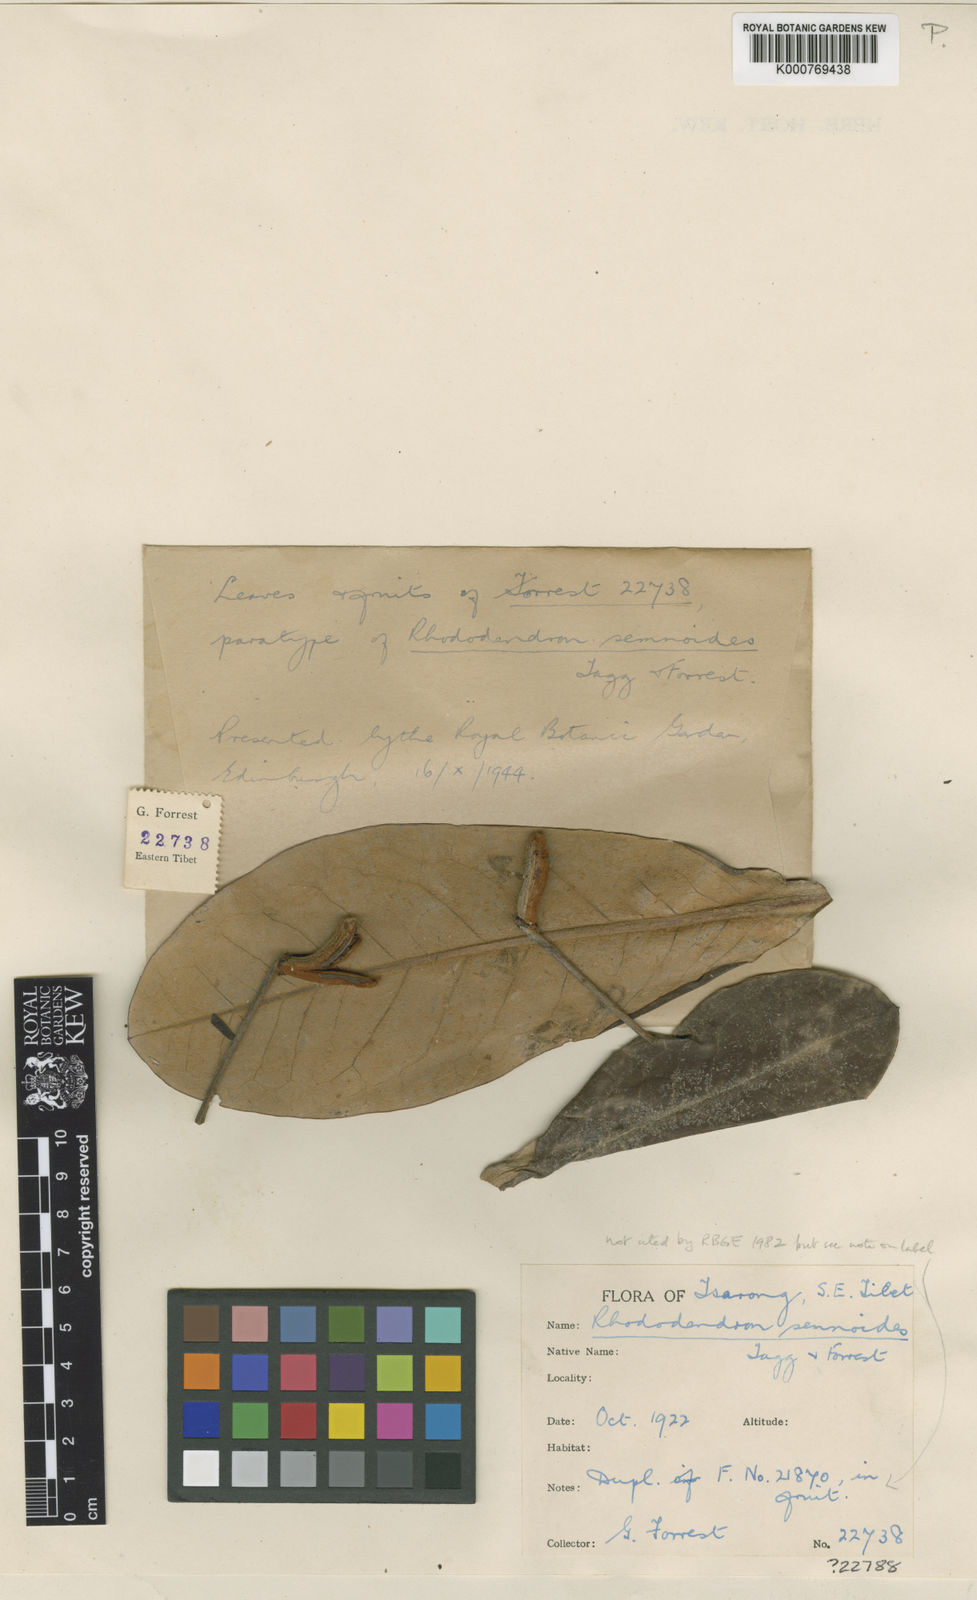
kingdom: Plantae
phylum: Tracheophyta
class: Magnoliopsida
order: Ericales
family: Ericaceae
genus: Rhododendron
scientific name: Rhododendron semnoides
